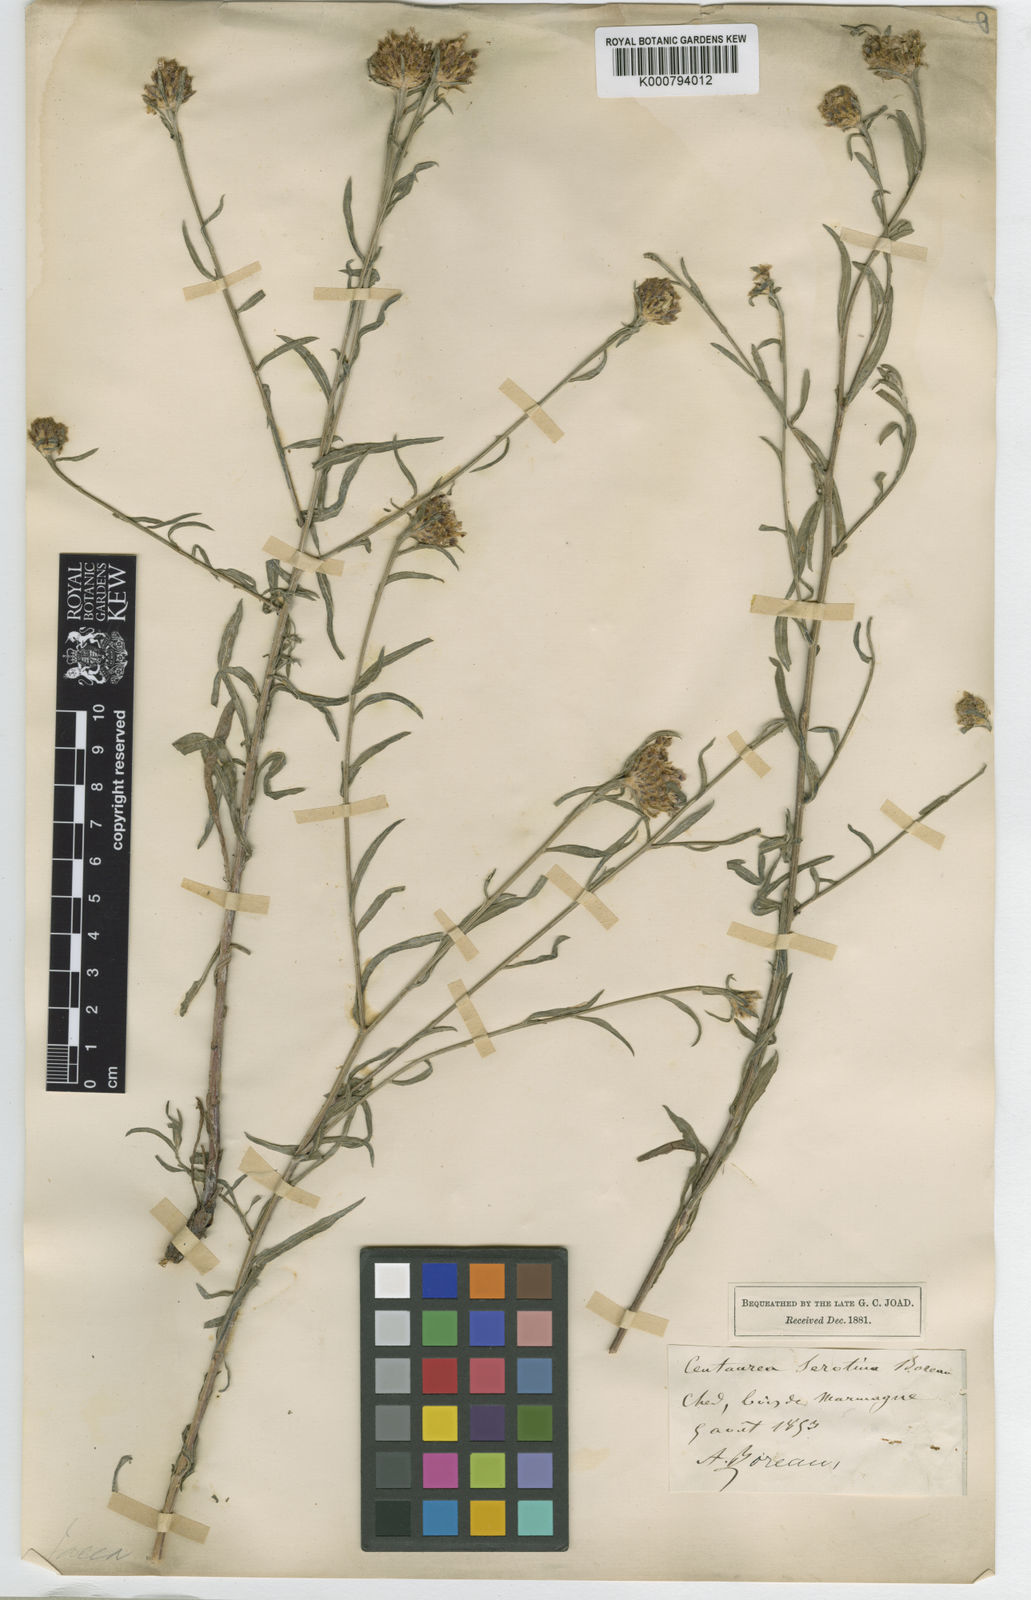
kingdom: Plantae
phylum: Tracheophyta
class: Magnoliopsida
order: Asterales
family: Asteraceae
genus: Centaurea
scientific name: Centaurea decipiens
